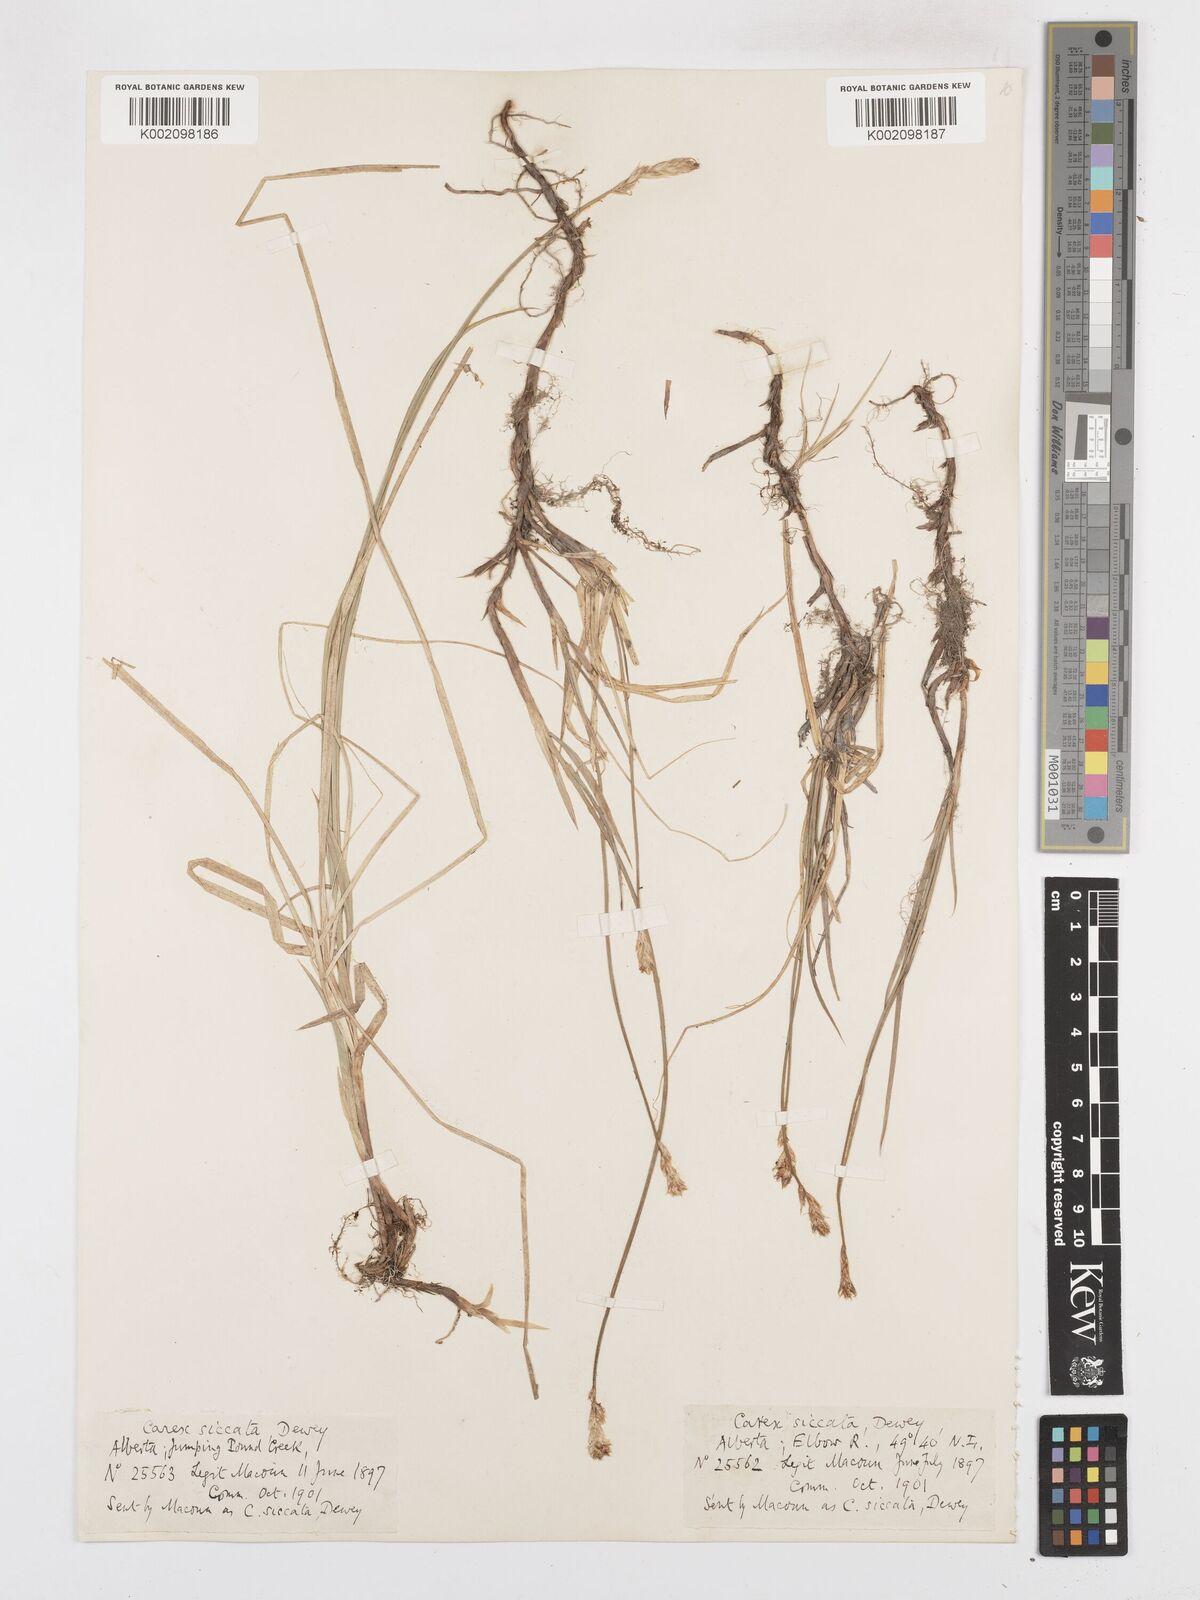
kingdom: Plantae
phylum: Tracheophyta
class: Liliopsida
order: Poales
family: Cyperaceae
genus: Carex
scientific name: Carex foenea
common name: Bronze sedge
